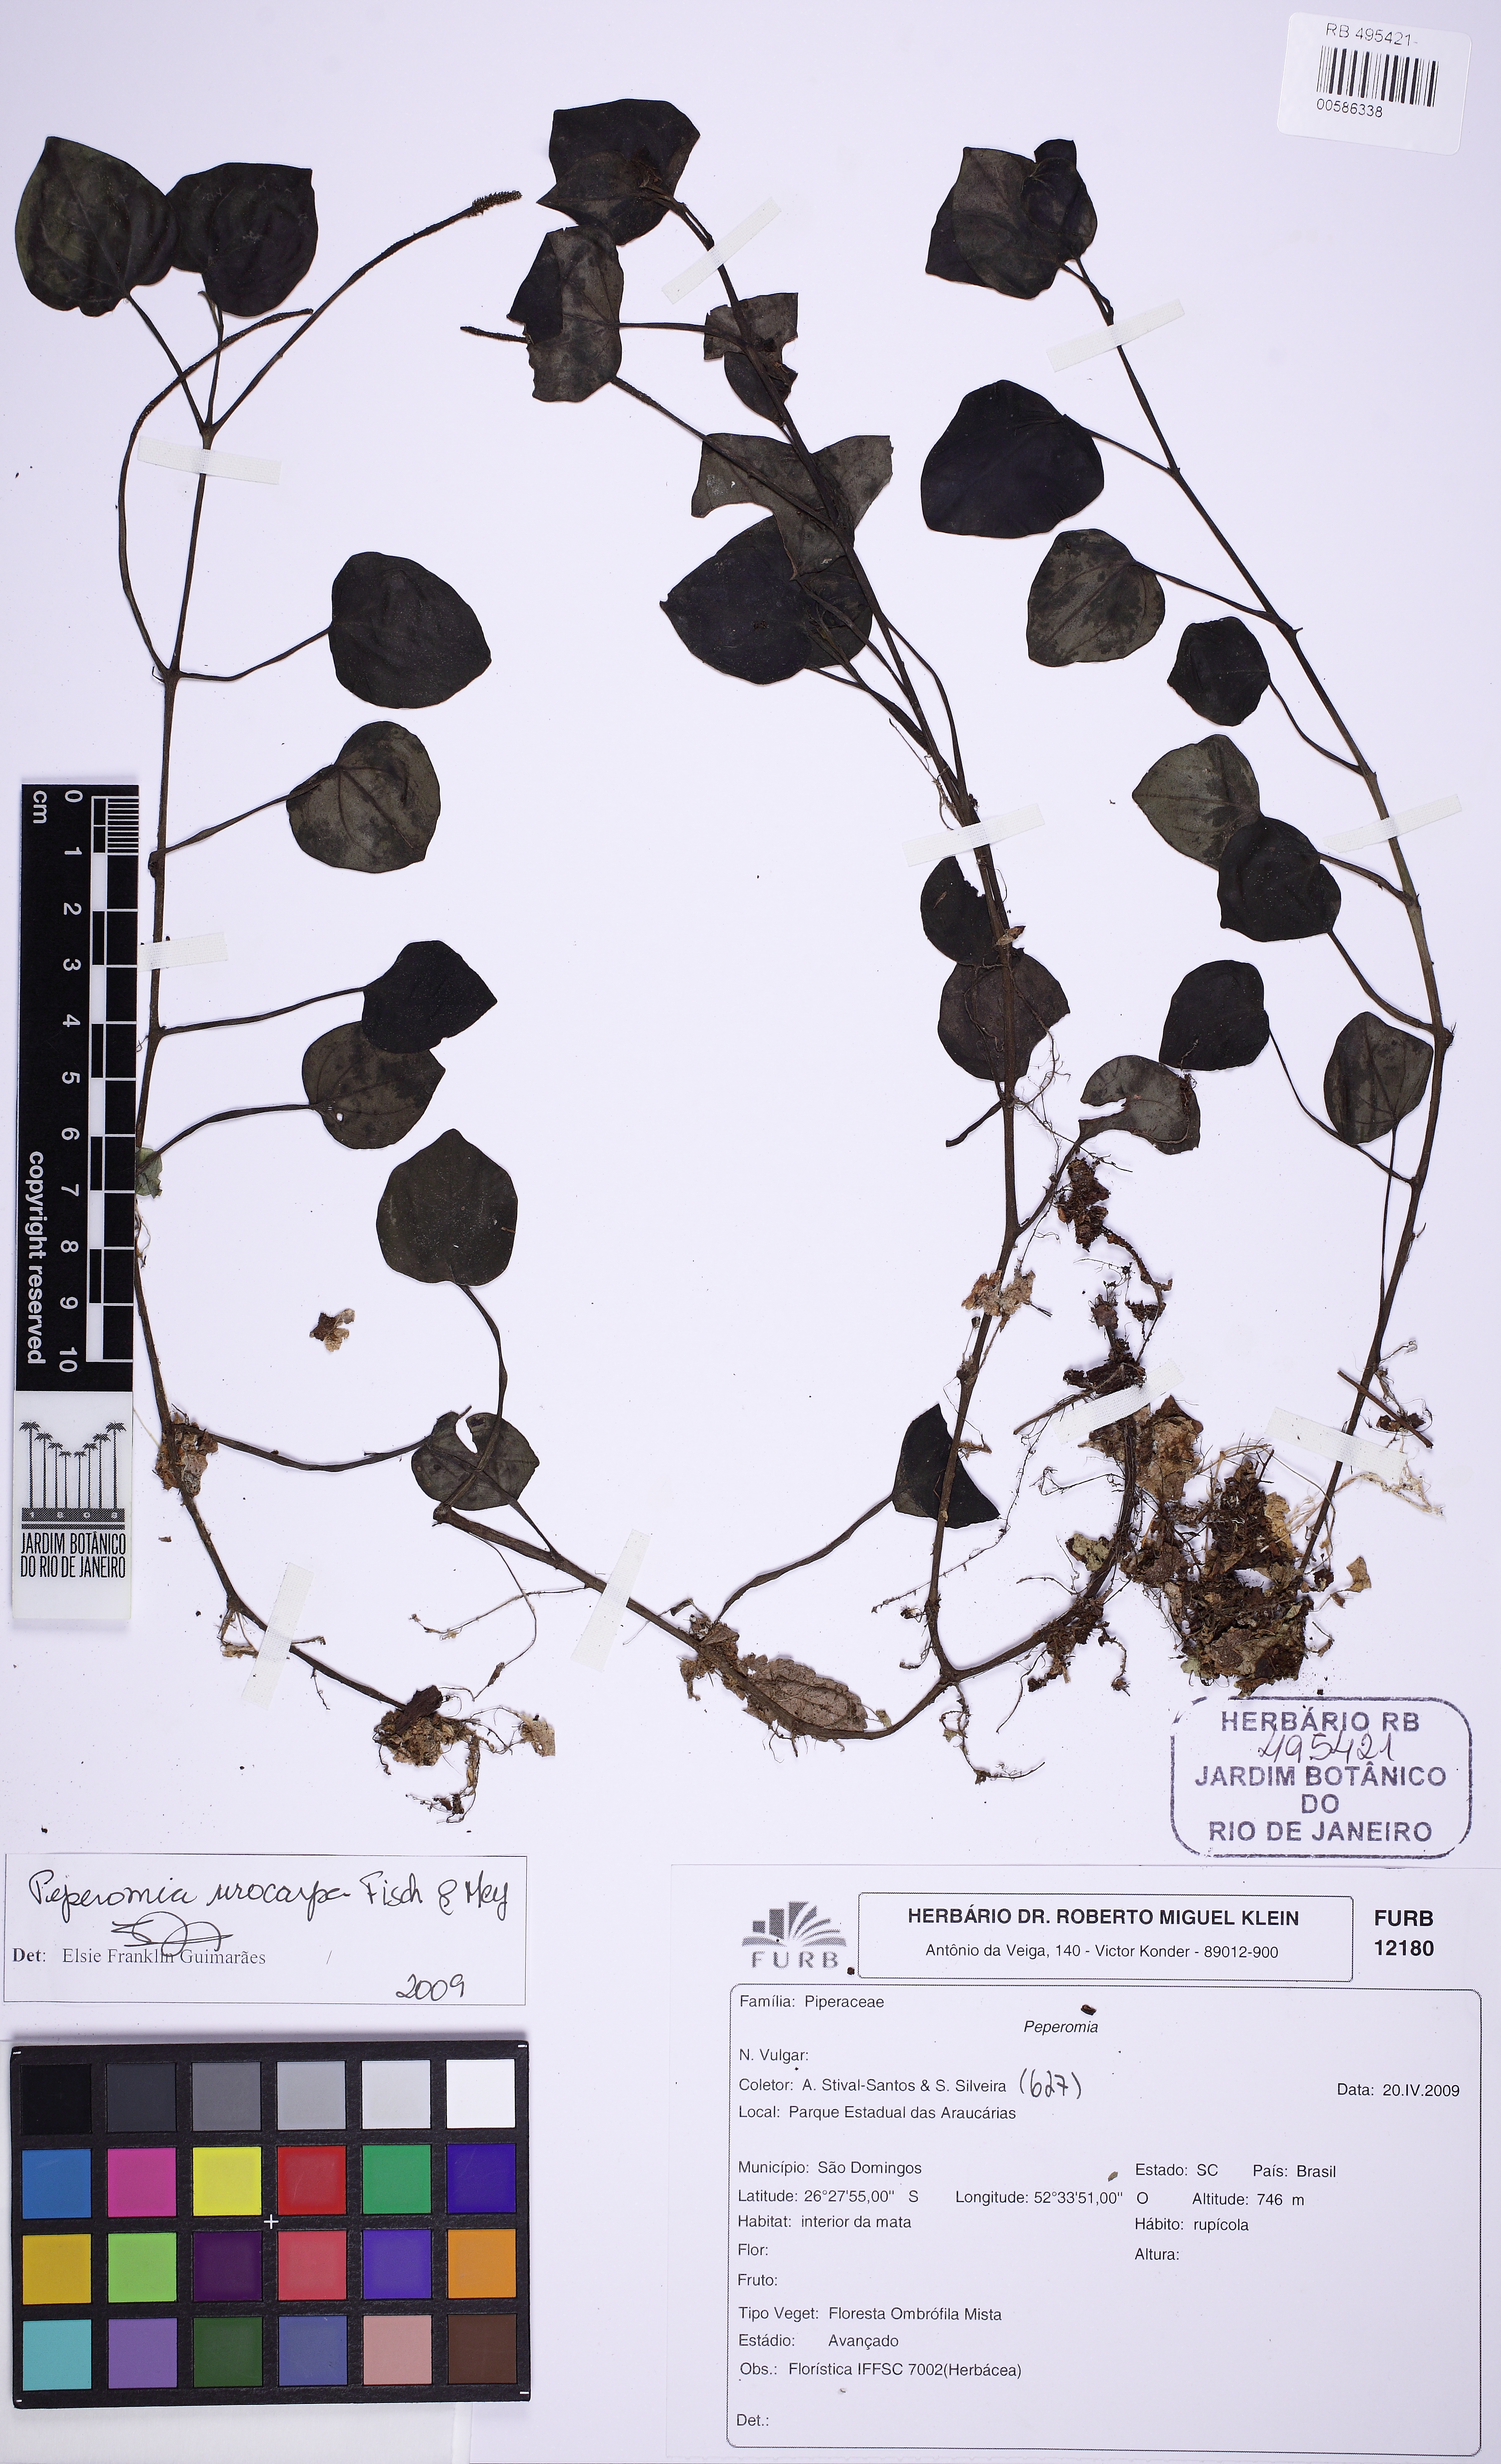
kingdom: Plantae
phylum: Tracheophyta
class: Magnoliopsida
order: Piperales
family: Piperaceae
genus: Peperomia
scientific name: Peperomia urocarpa
